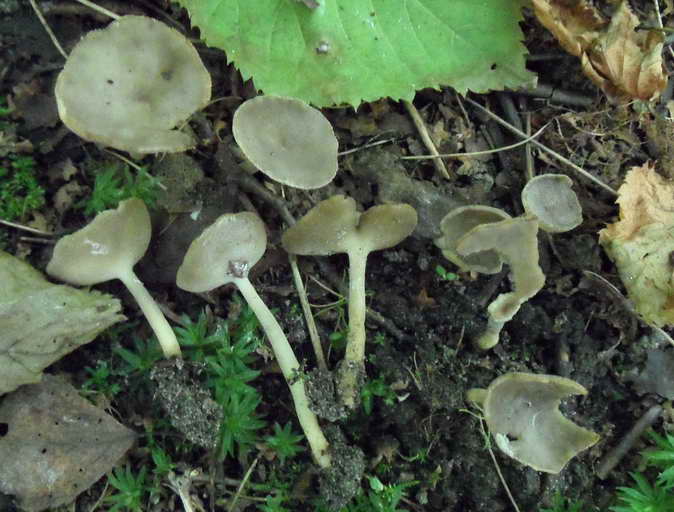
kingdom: Fungi
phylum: Ascomycota
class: Pezizomycetes
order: Pezizales
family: Helvellaceae
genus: Helvella
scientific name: Helvella fibrosa
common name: dunstokket foldhat
